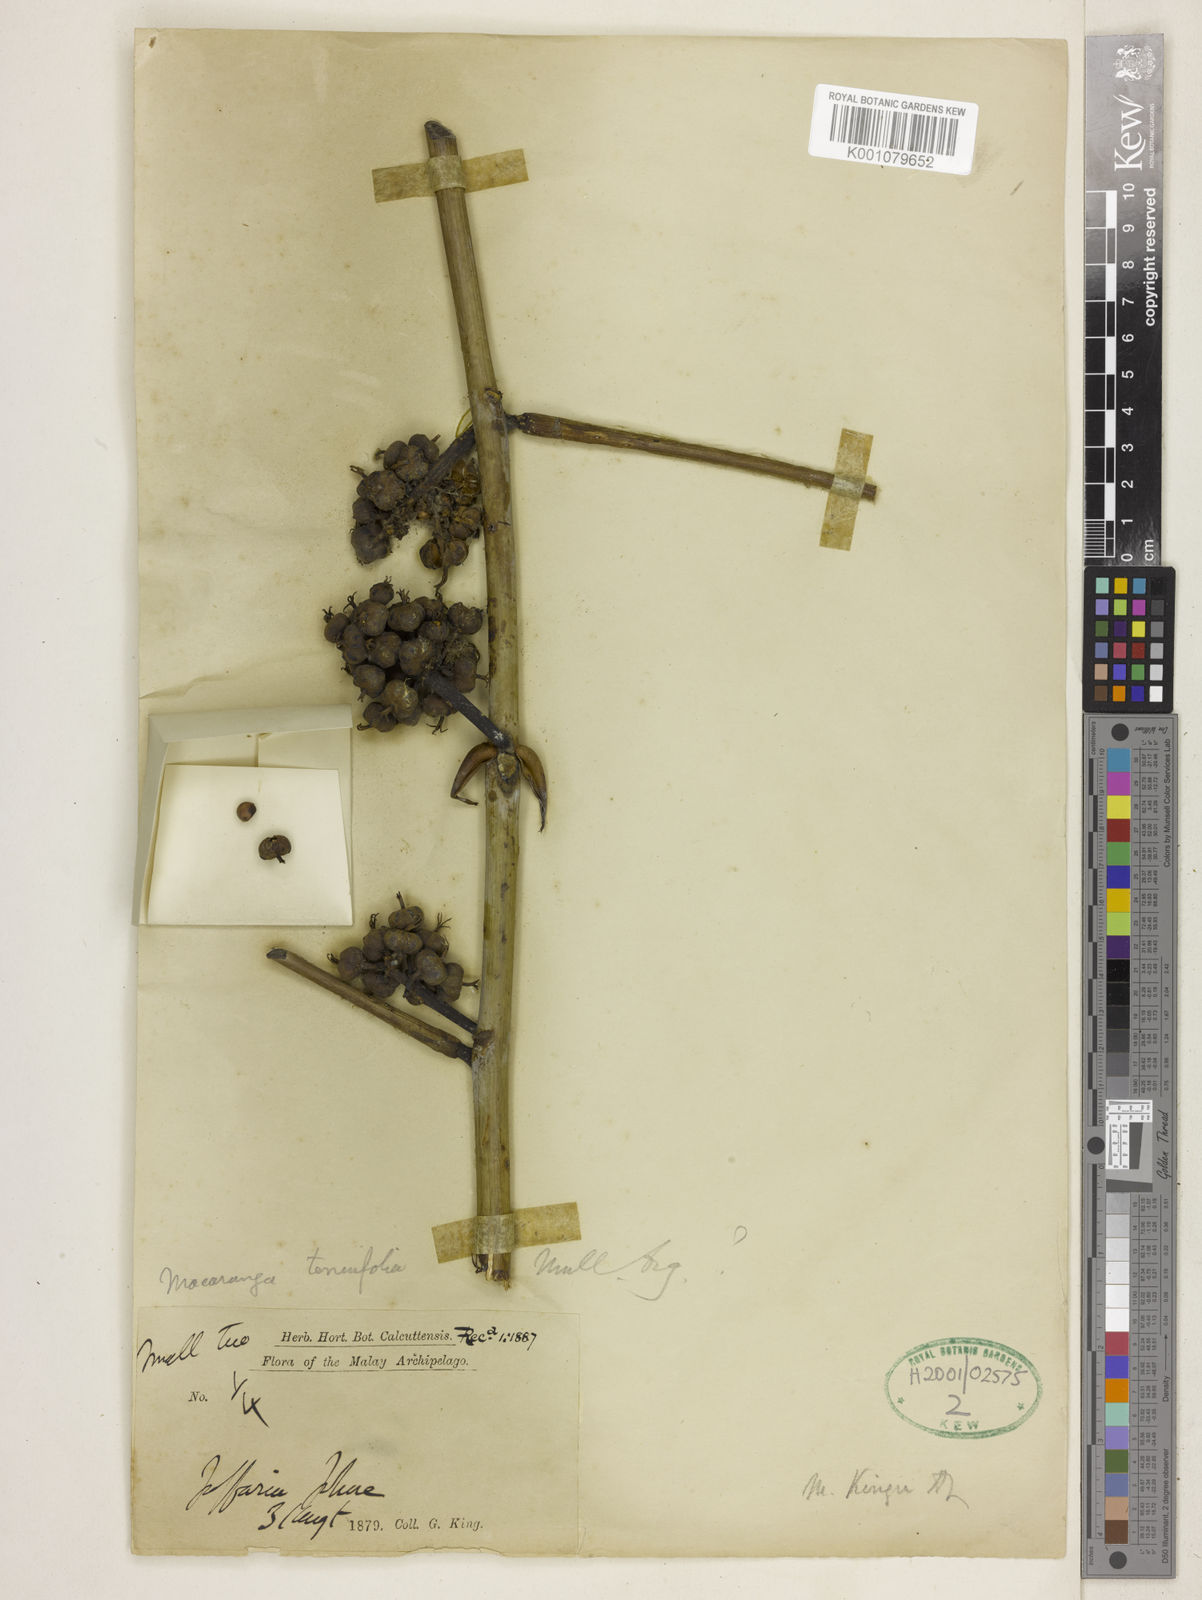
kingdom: Plantae
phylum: Tracheophyta
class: Magnoliopsida
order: Malpighiales
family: Euphorbiaceae
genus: Macaranga
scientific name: Macaranga kingii
